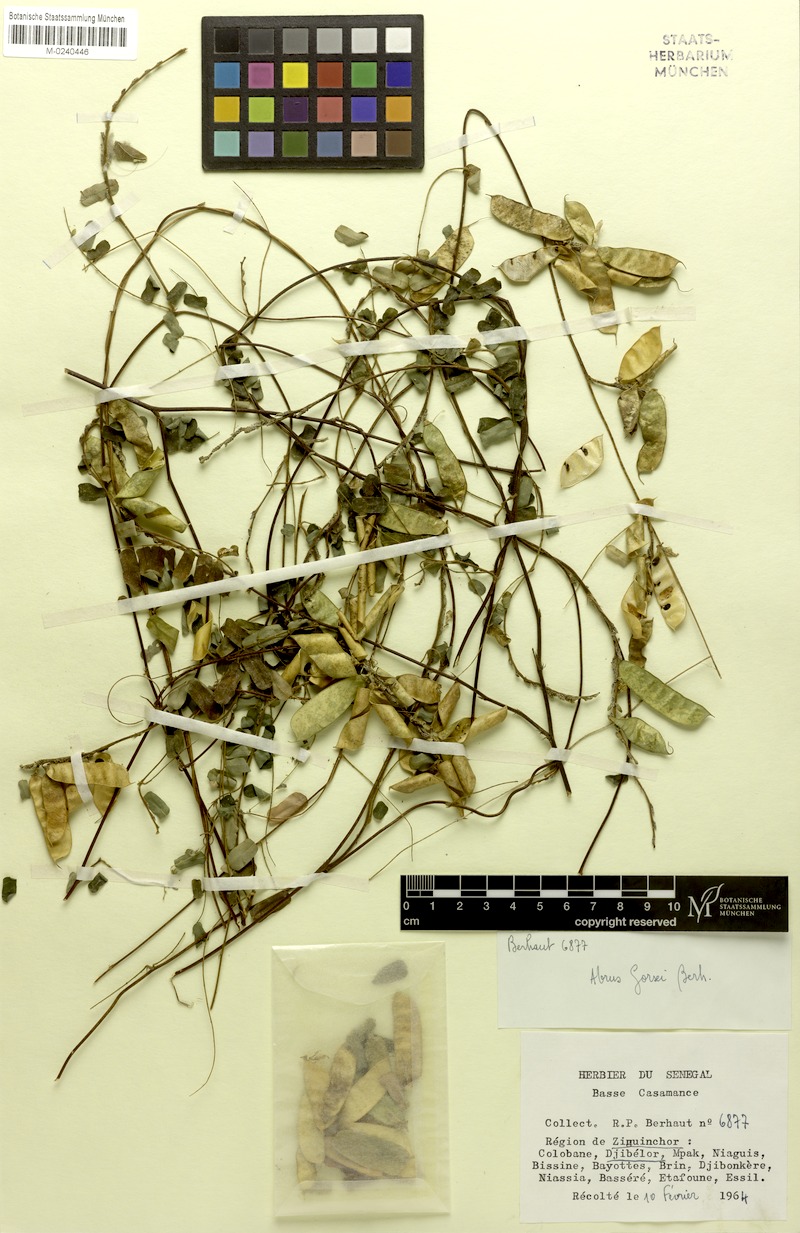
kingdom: Plantae
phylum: Tracheophyta
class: Magnoliopsida
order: Fabales
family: Fabaceae
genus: Abrus
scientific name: Abrus melanospermus
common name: Licorice-root
